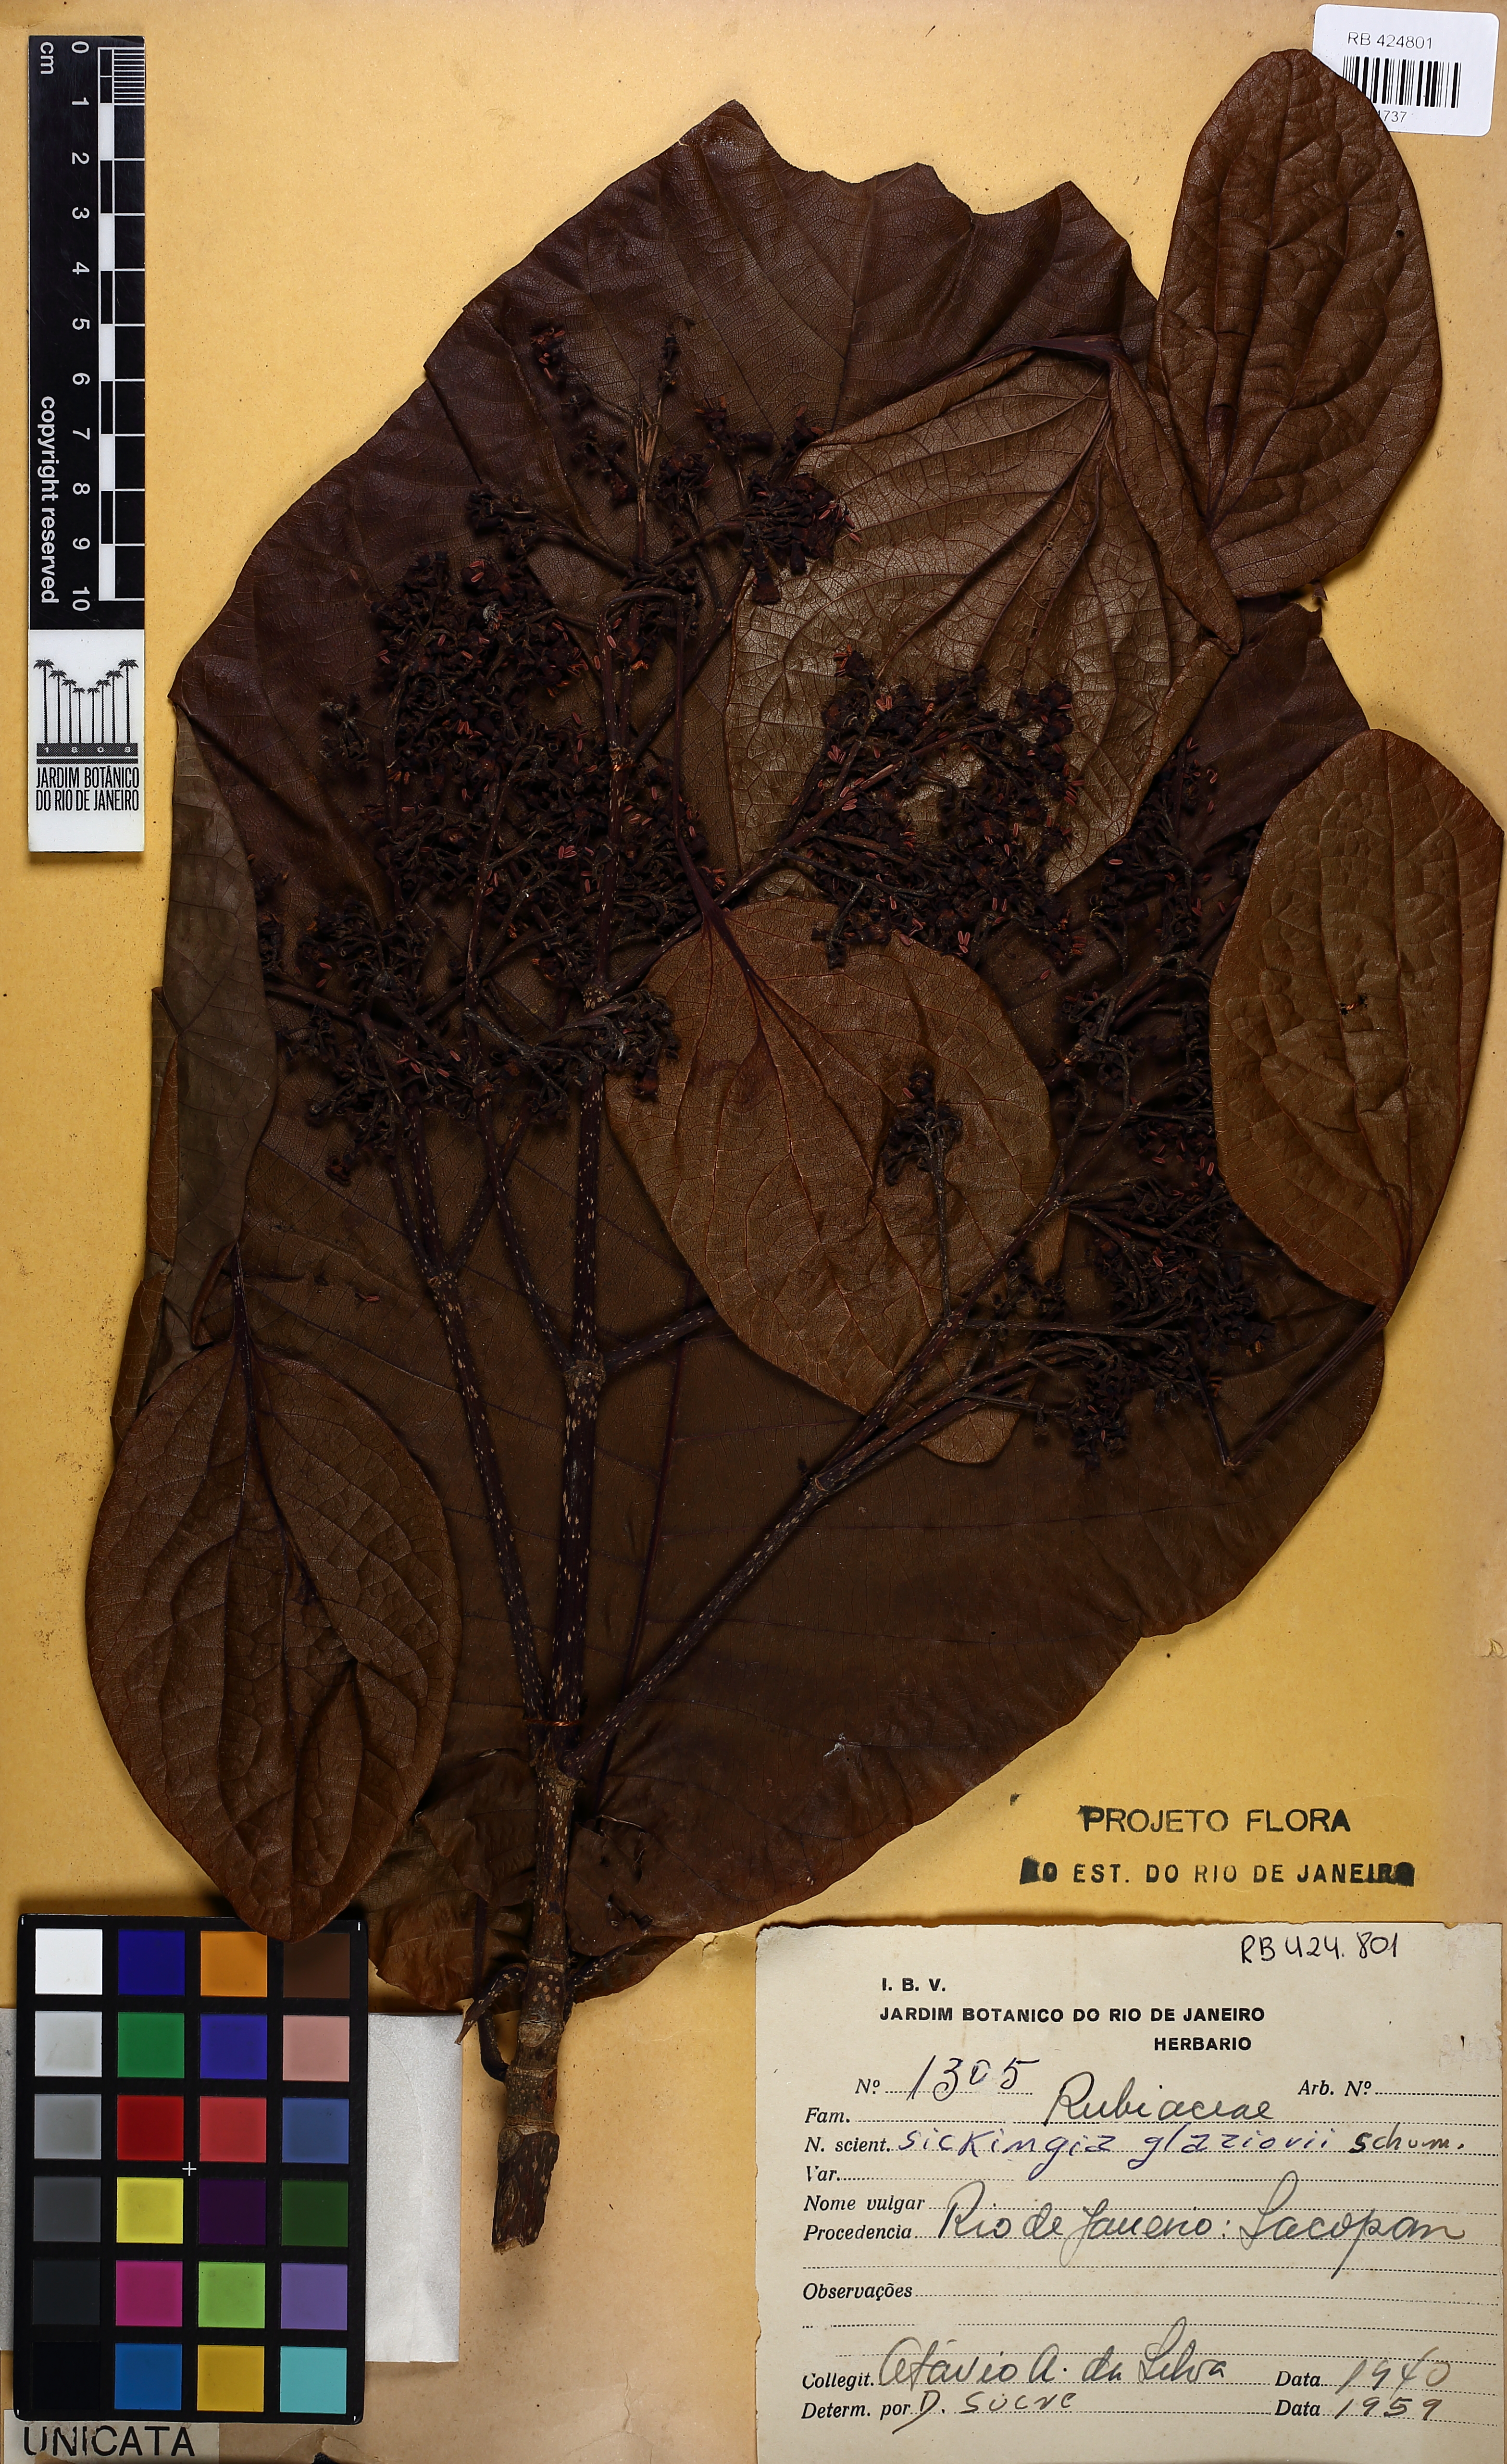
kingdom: Plantae
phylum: Tracheophyta
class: Magnoliopsida
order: Gentianales
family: Rubiaceae
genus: Simira
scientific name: Simira alba
